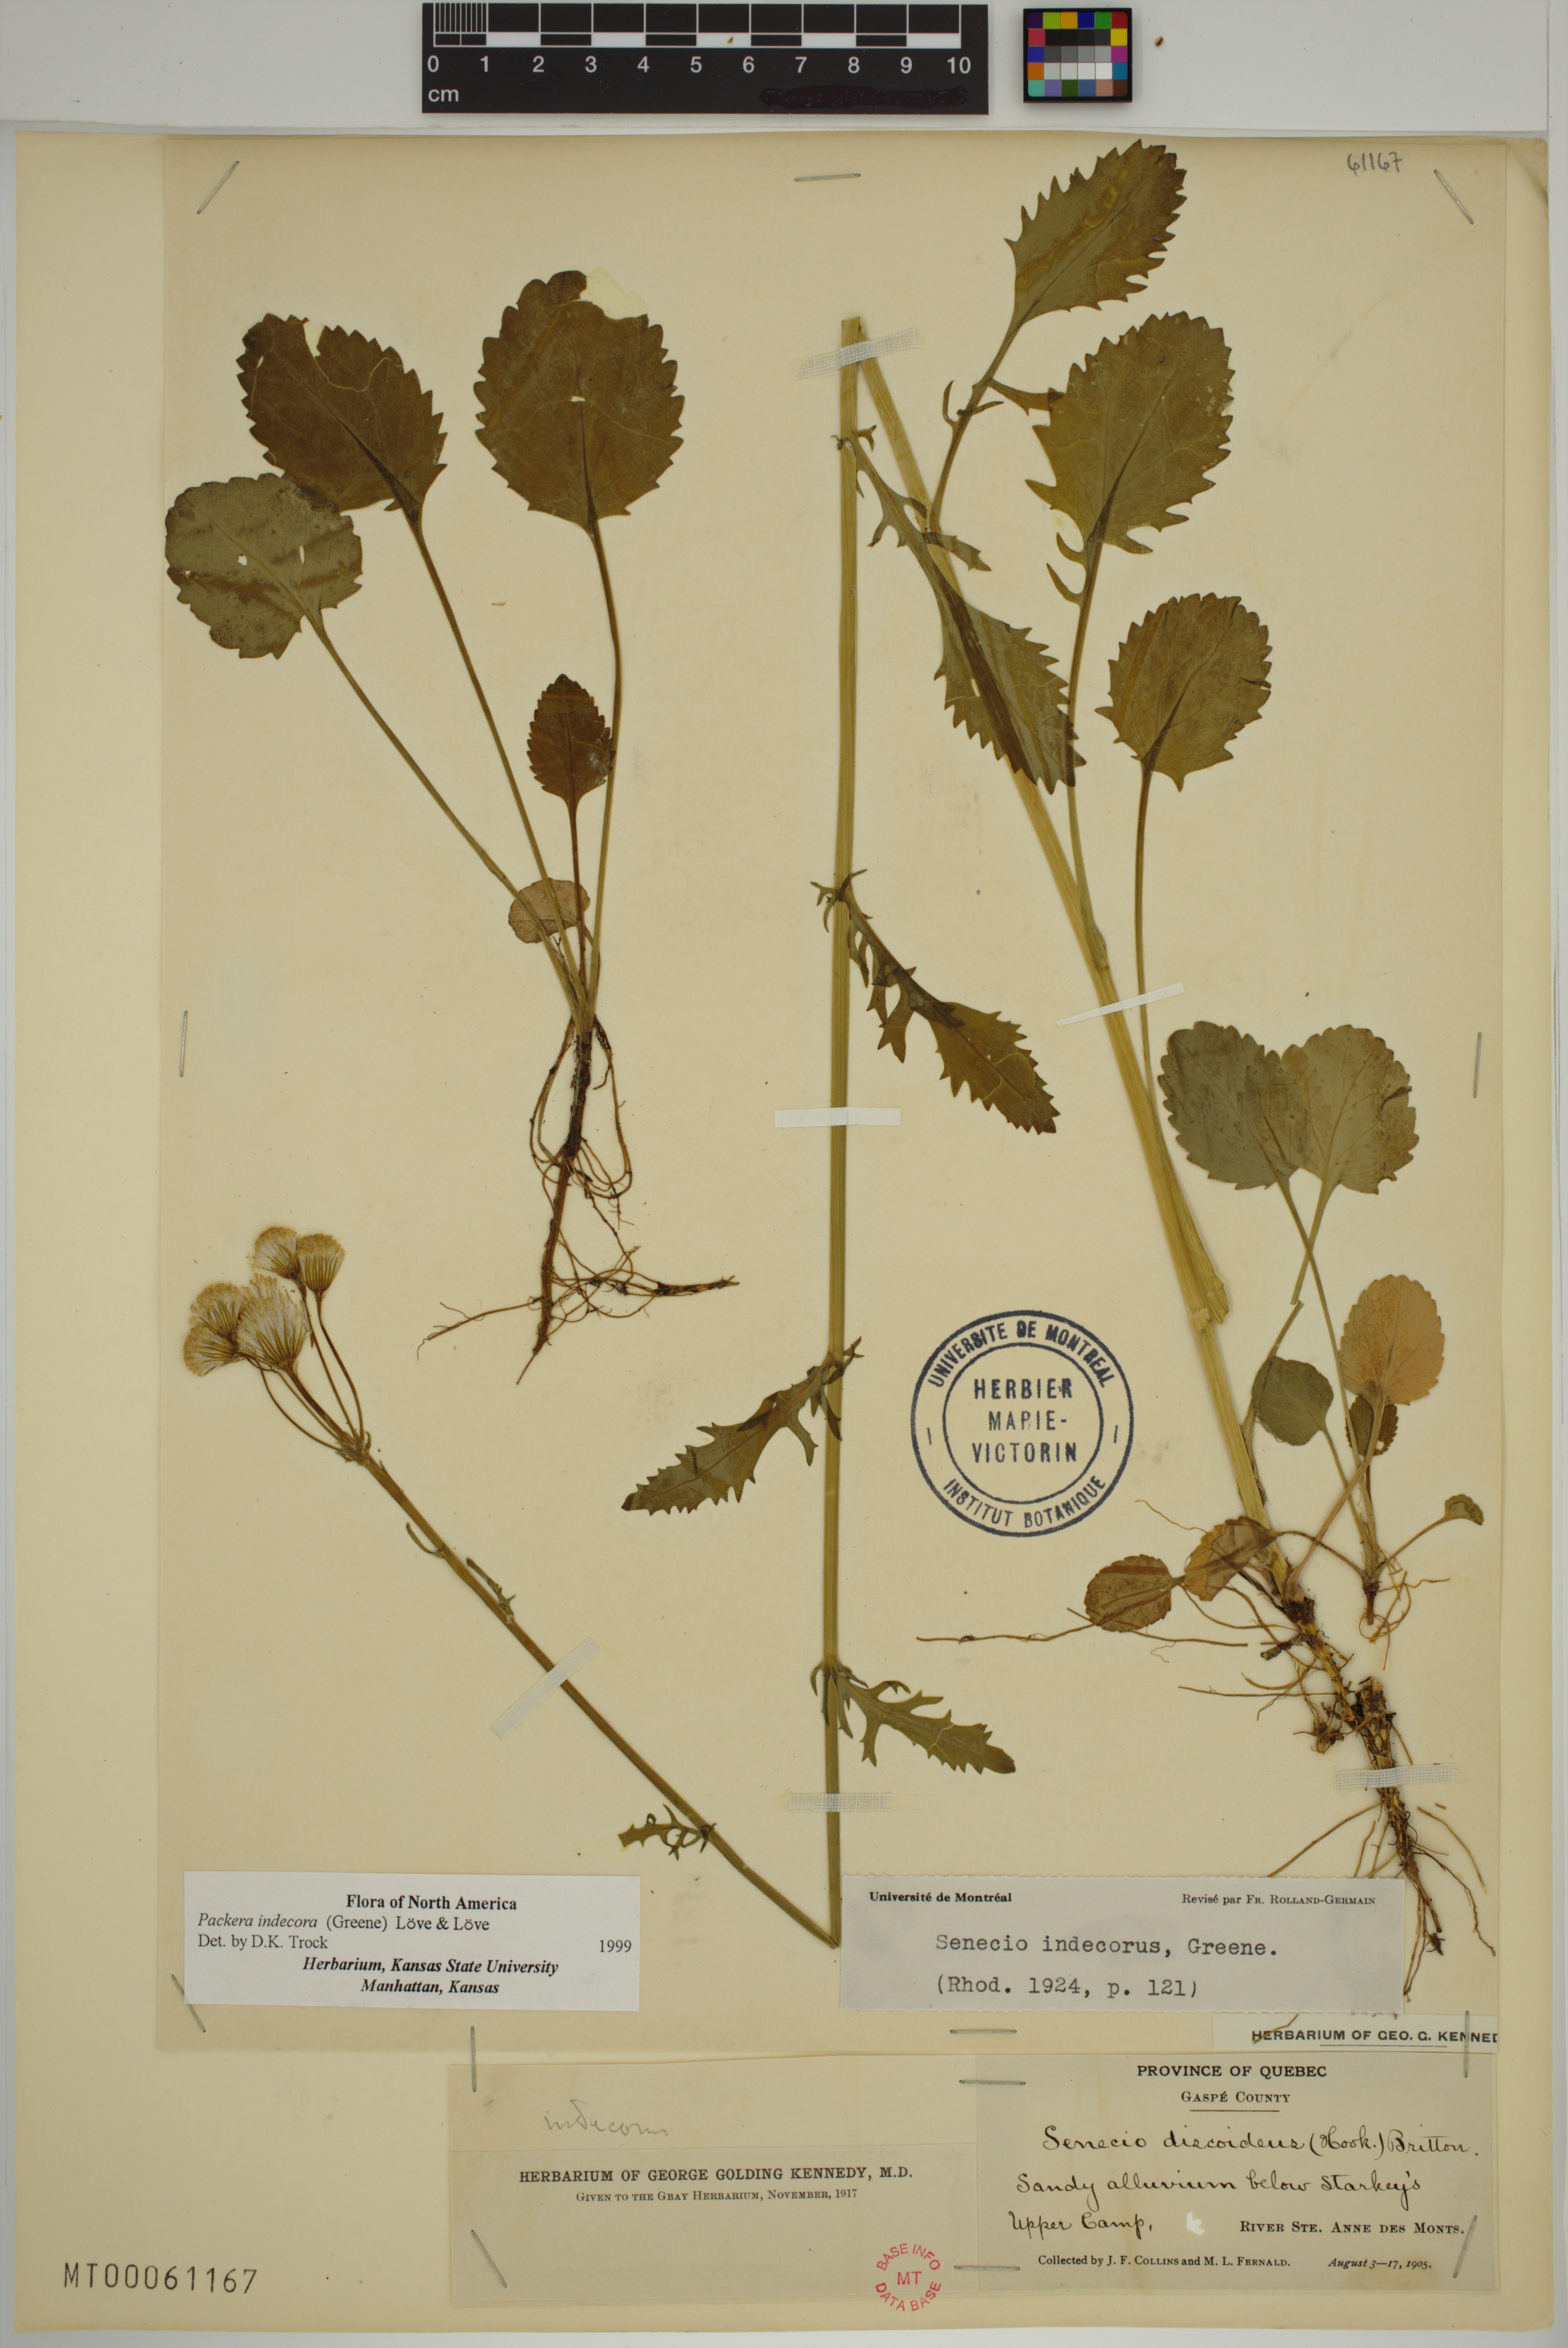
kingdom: Plantae
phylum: Tracheophyta
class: Magnoliopsida
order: Asterales
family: Asteraceae
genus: Packera
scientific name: Packera indecora
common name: Elegant groundsel
